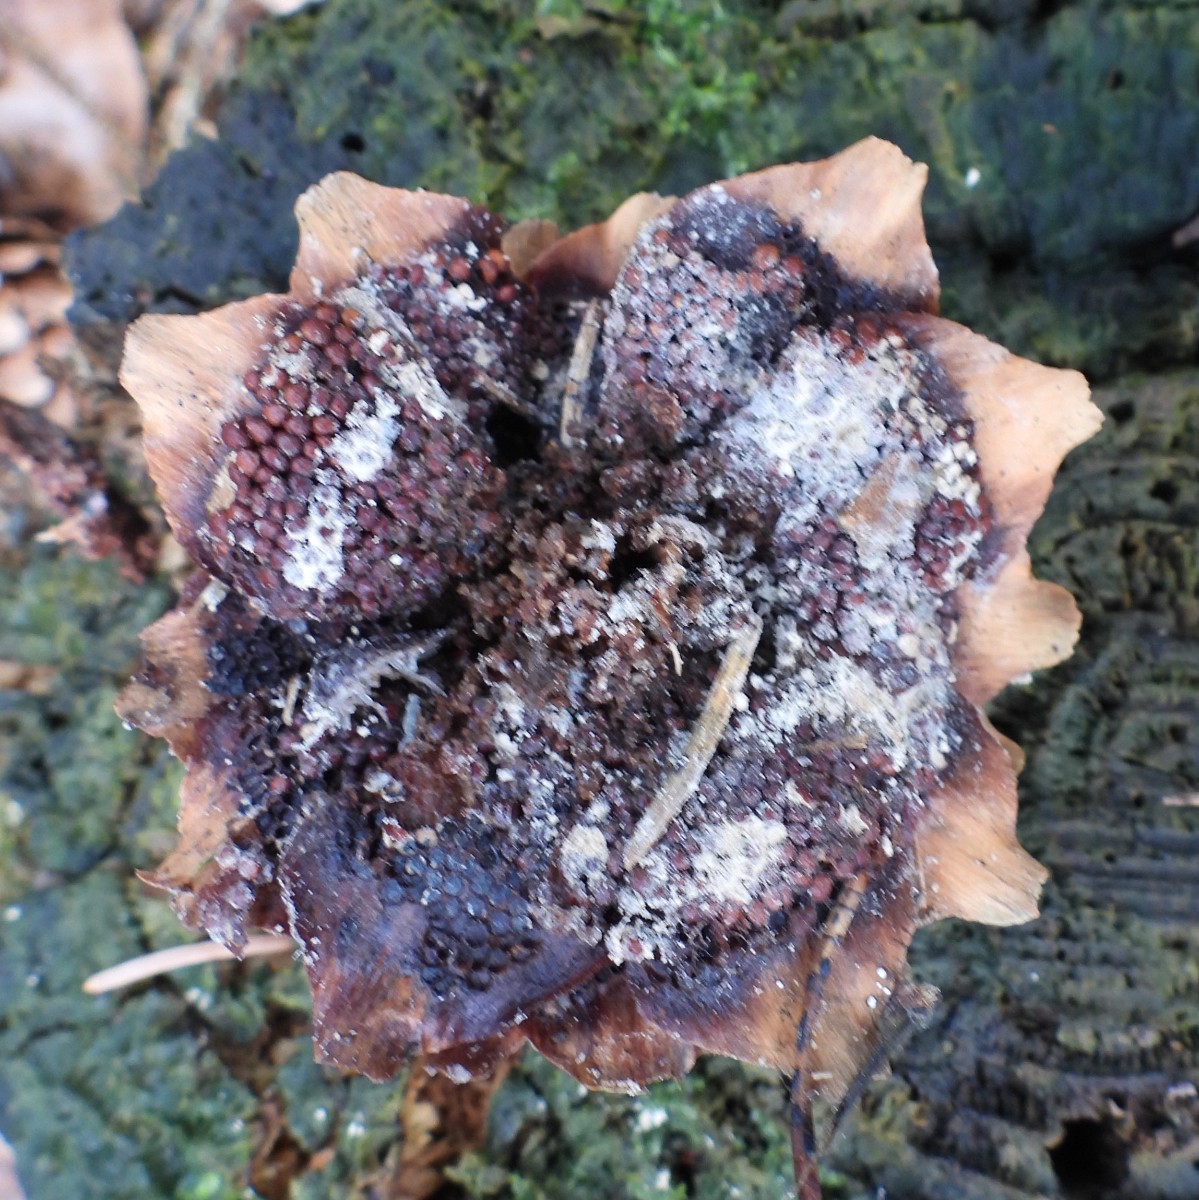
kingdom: Fungi
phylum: Basidiomycota
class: Pucciniomycetes
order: Pucciniales
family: Pucciniastraceae
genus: Thekopsora
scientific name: Thekopsora areolata
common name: grankogle-nålerust
